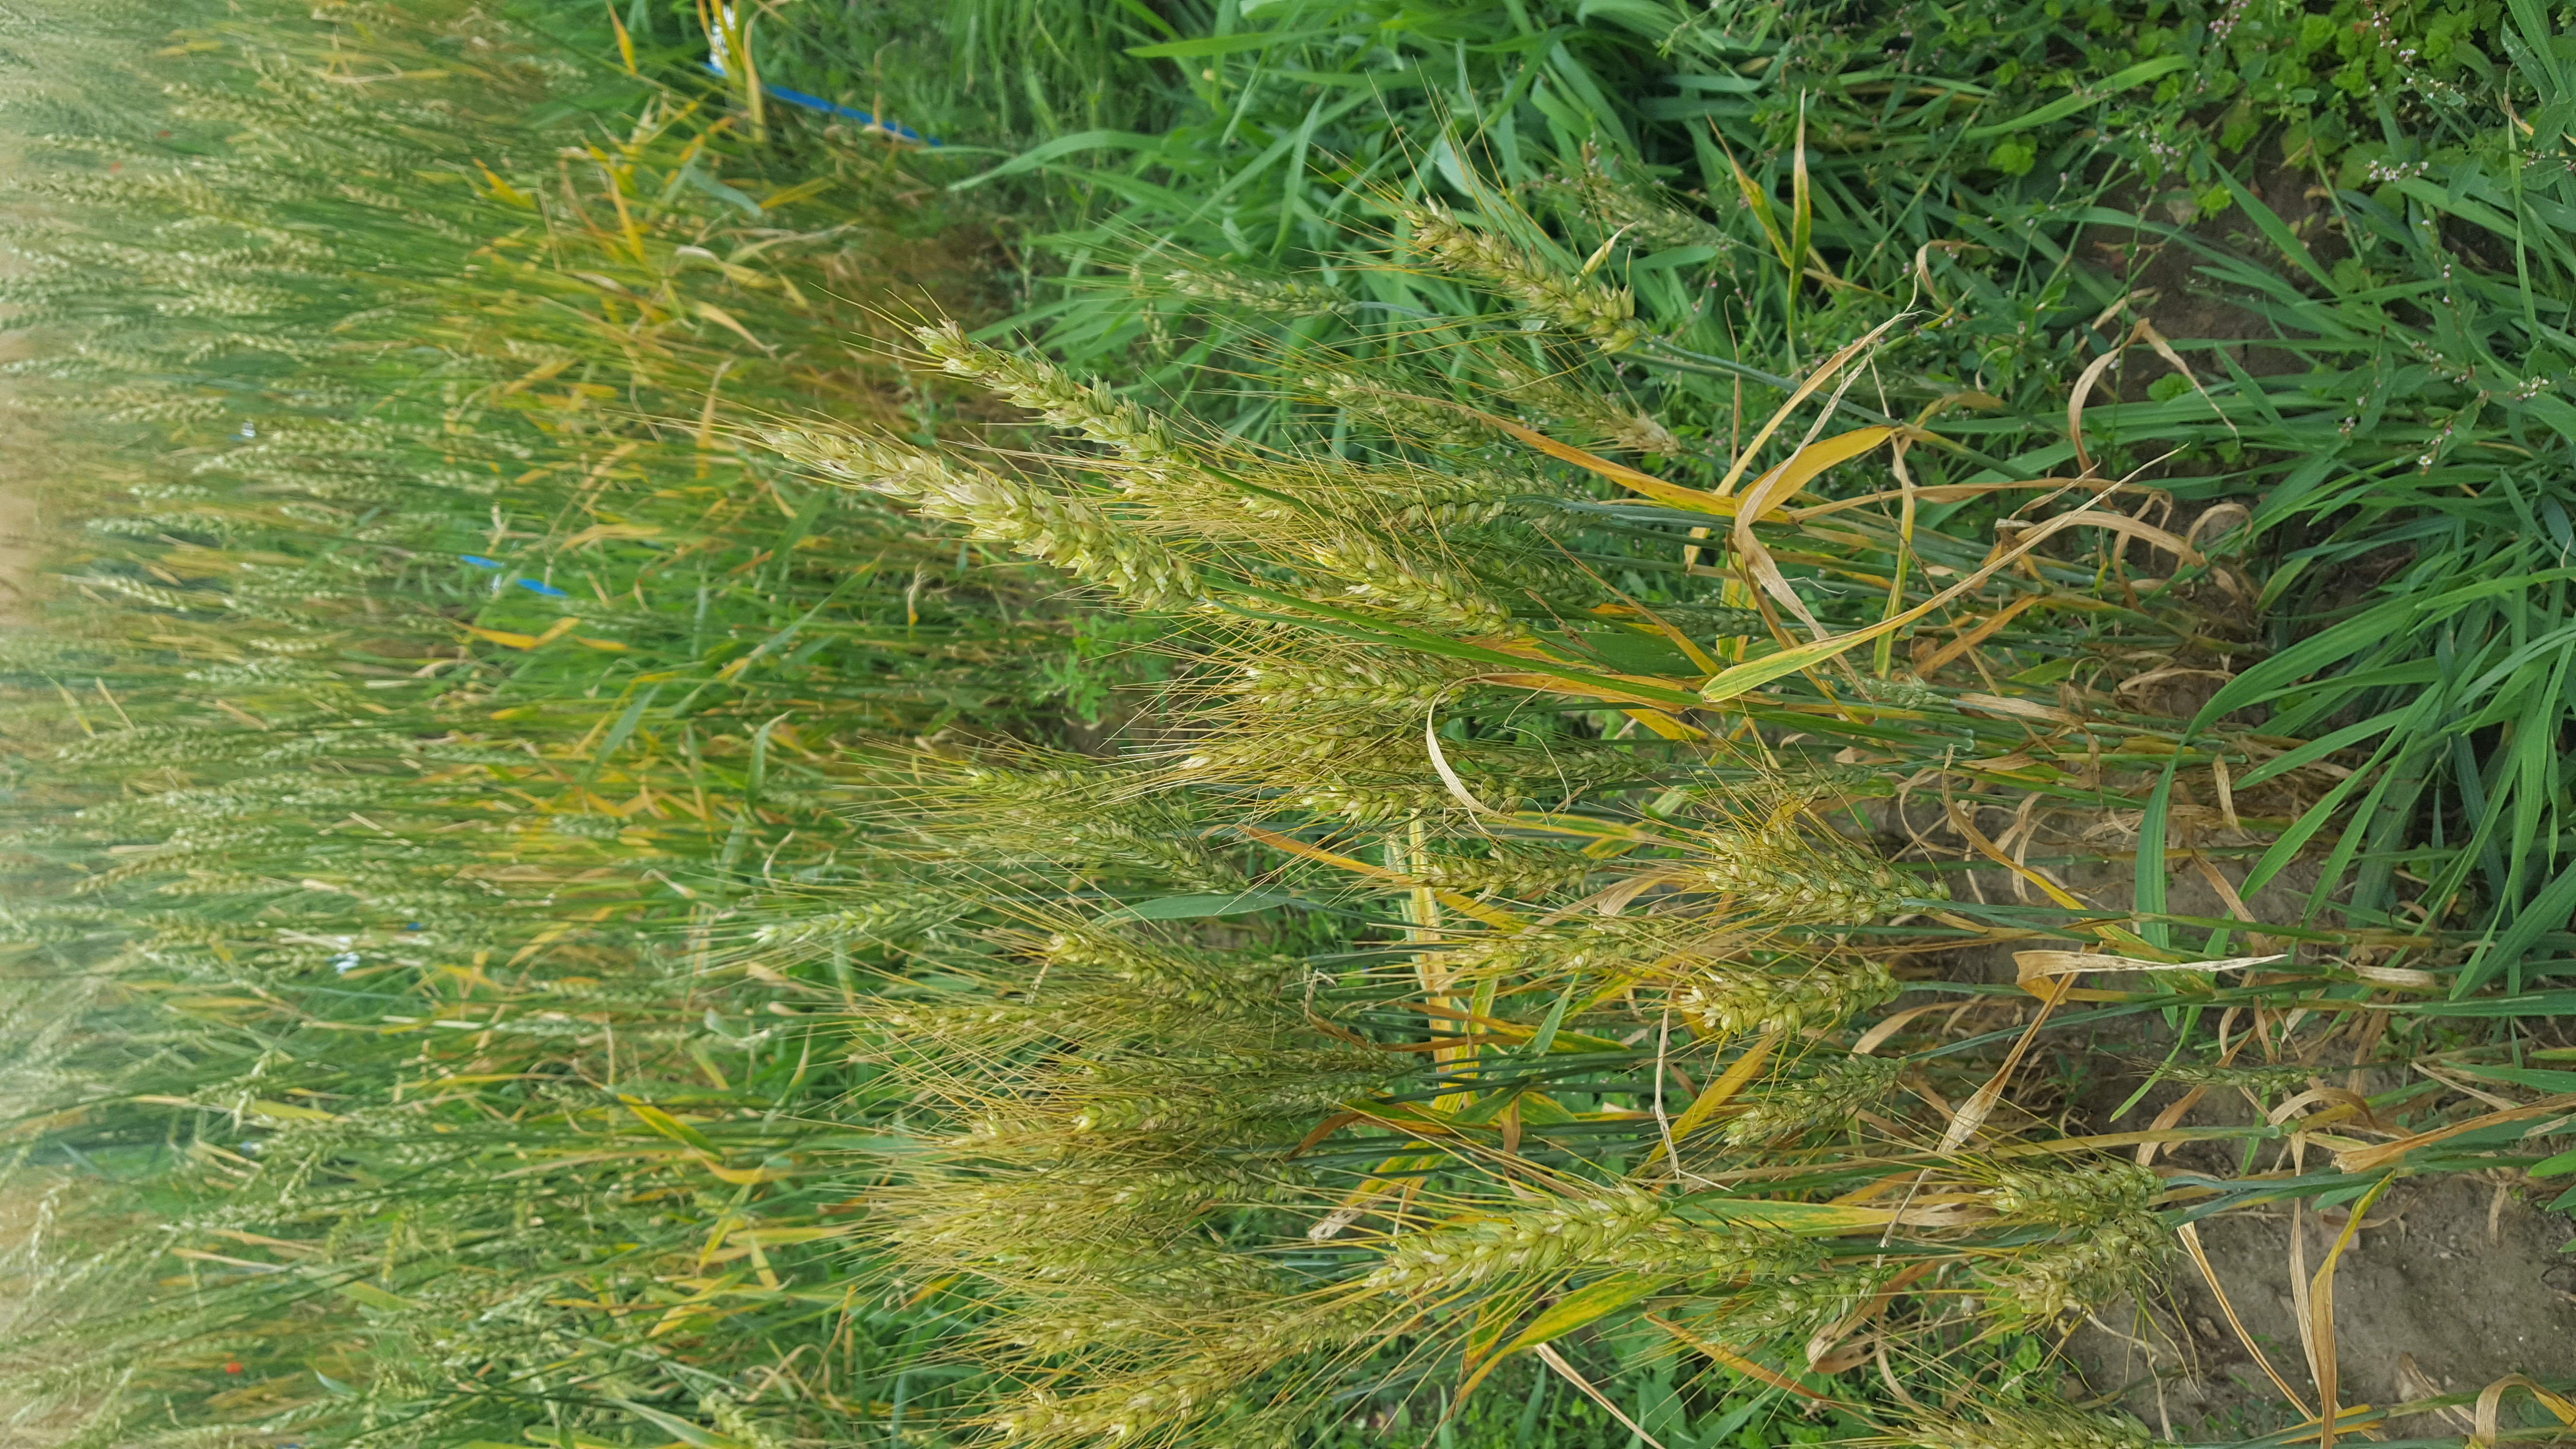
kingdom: Plantae
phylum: Tracheophyta
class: Liliopsida
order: Poales
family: Poaceae
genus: Triticum
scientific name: Triticum aestivum
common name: Common wheat
